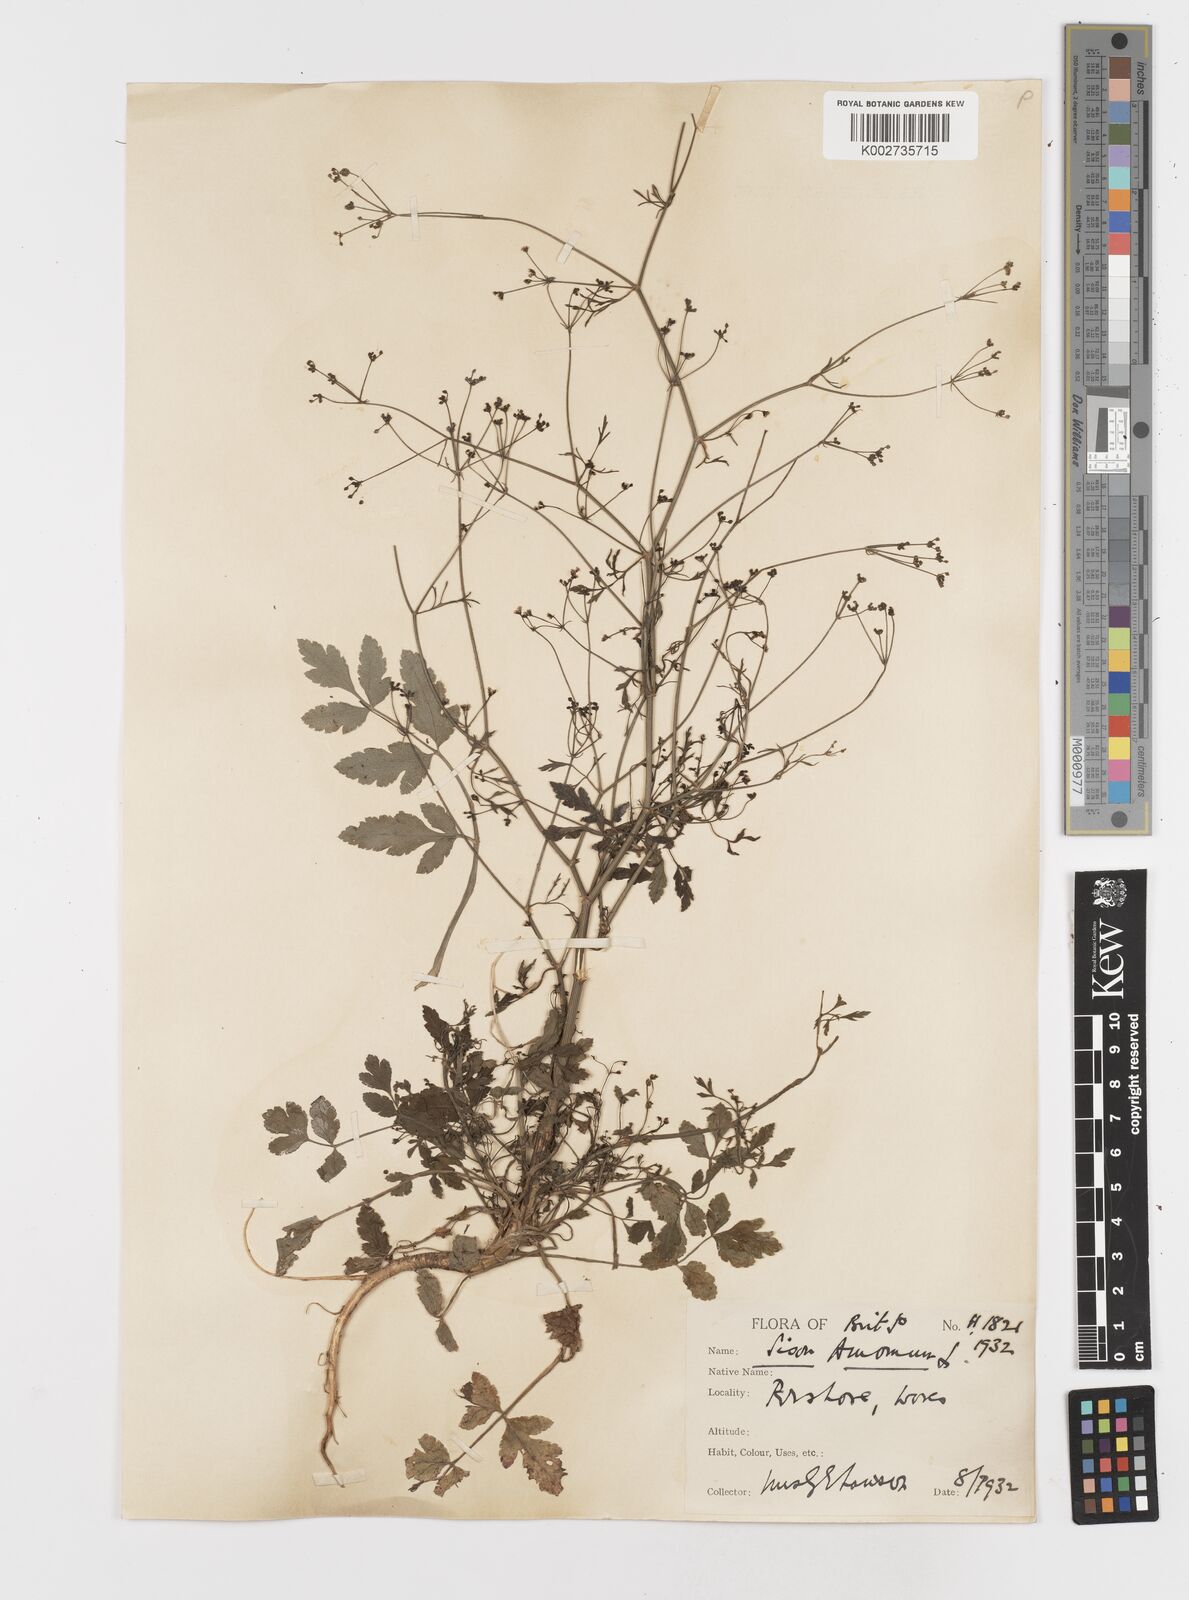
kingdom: Plantae
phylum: Tracheophyta
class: Magnoliopsida
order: Apiales
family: Apiaceae
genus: Sison
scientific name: Sison amomum
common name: Stone-parsley
